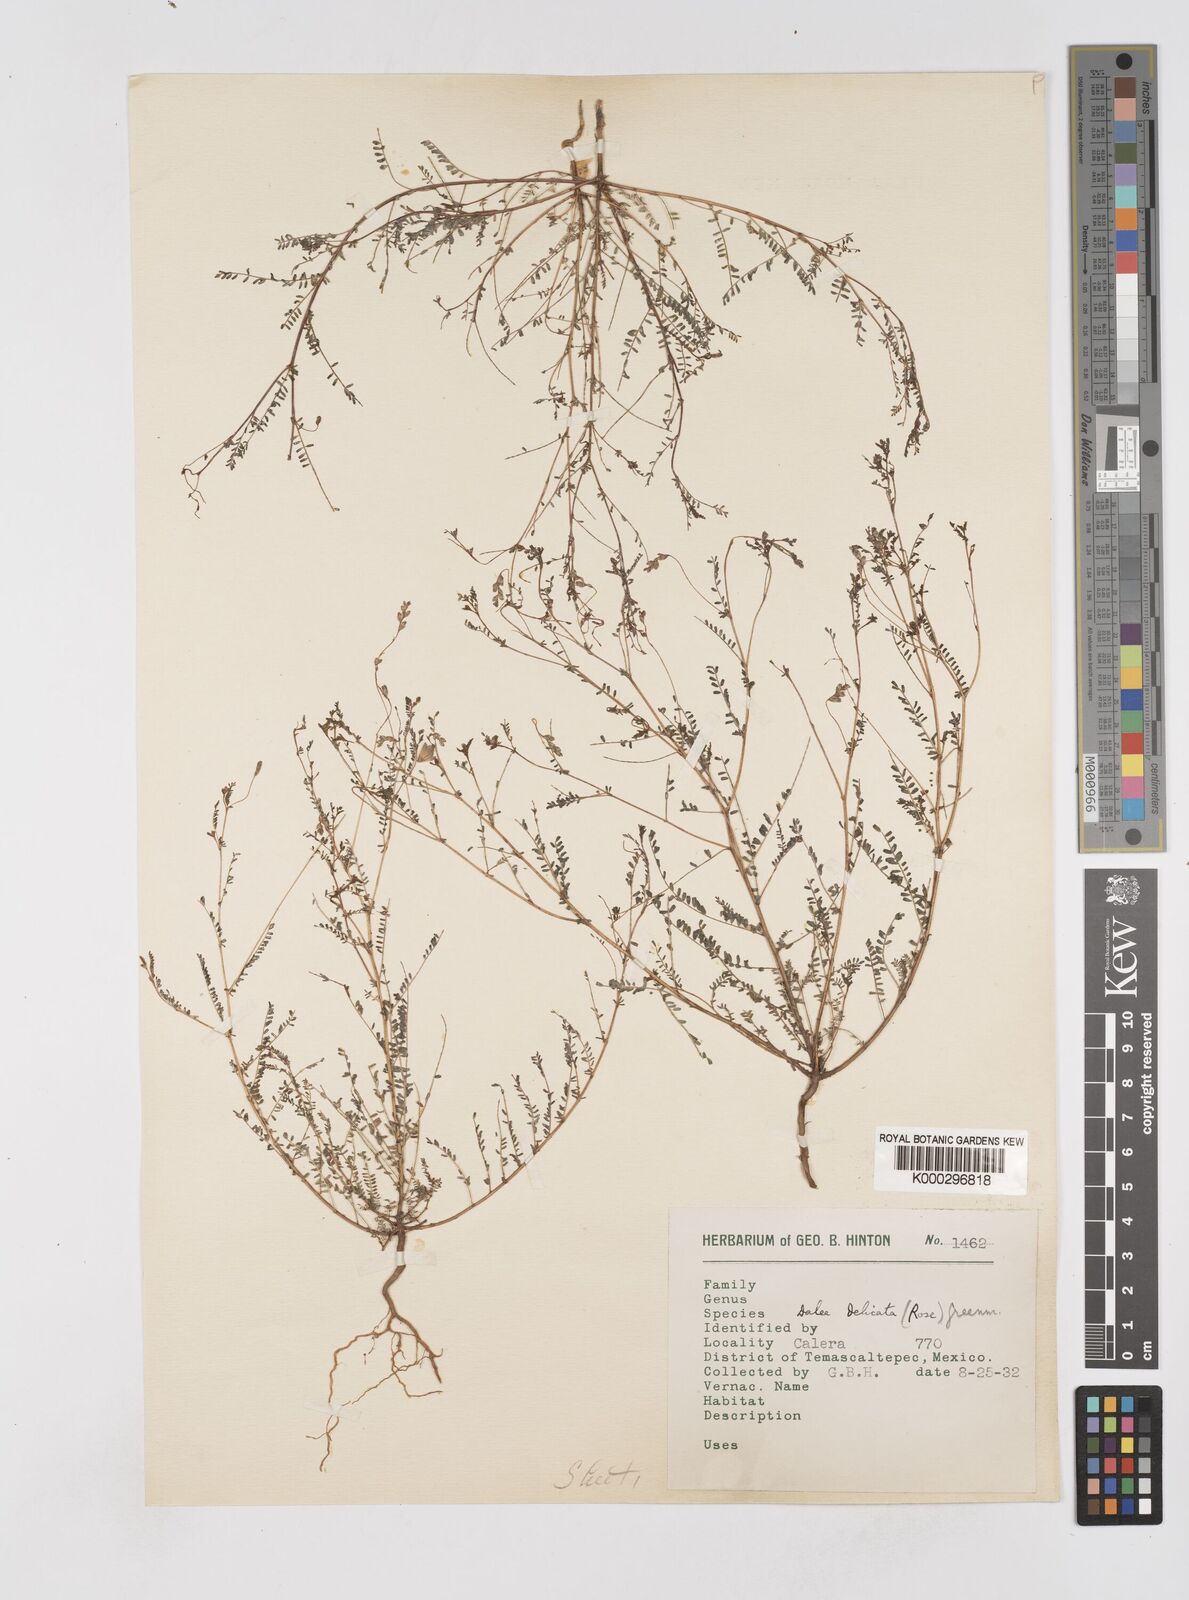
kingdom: Plantae
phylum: Tracheophyta
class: Magnoliopsida
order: Fabales
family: Fabaceae
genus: Marina
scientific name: Marina gracilis
